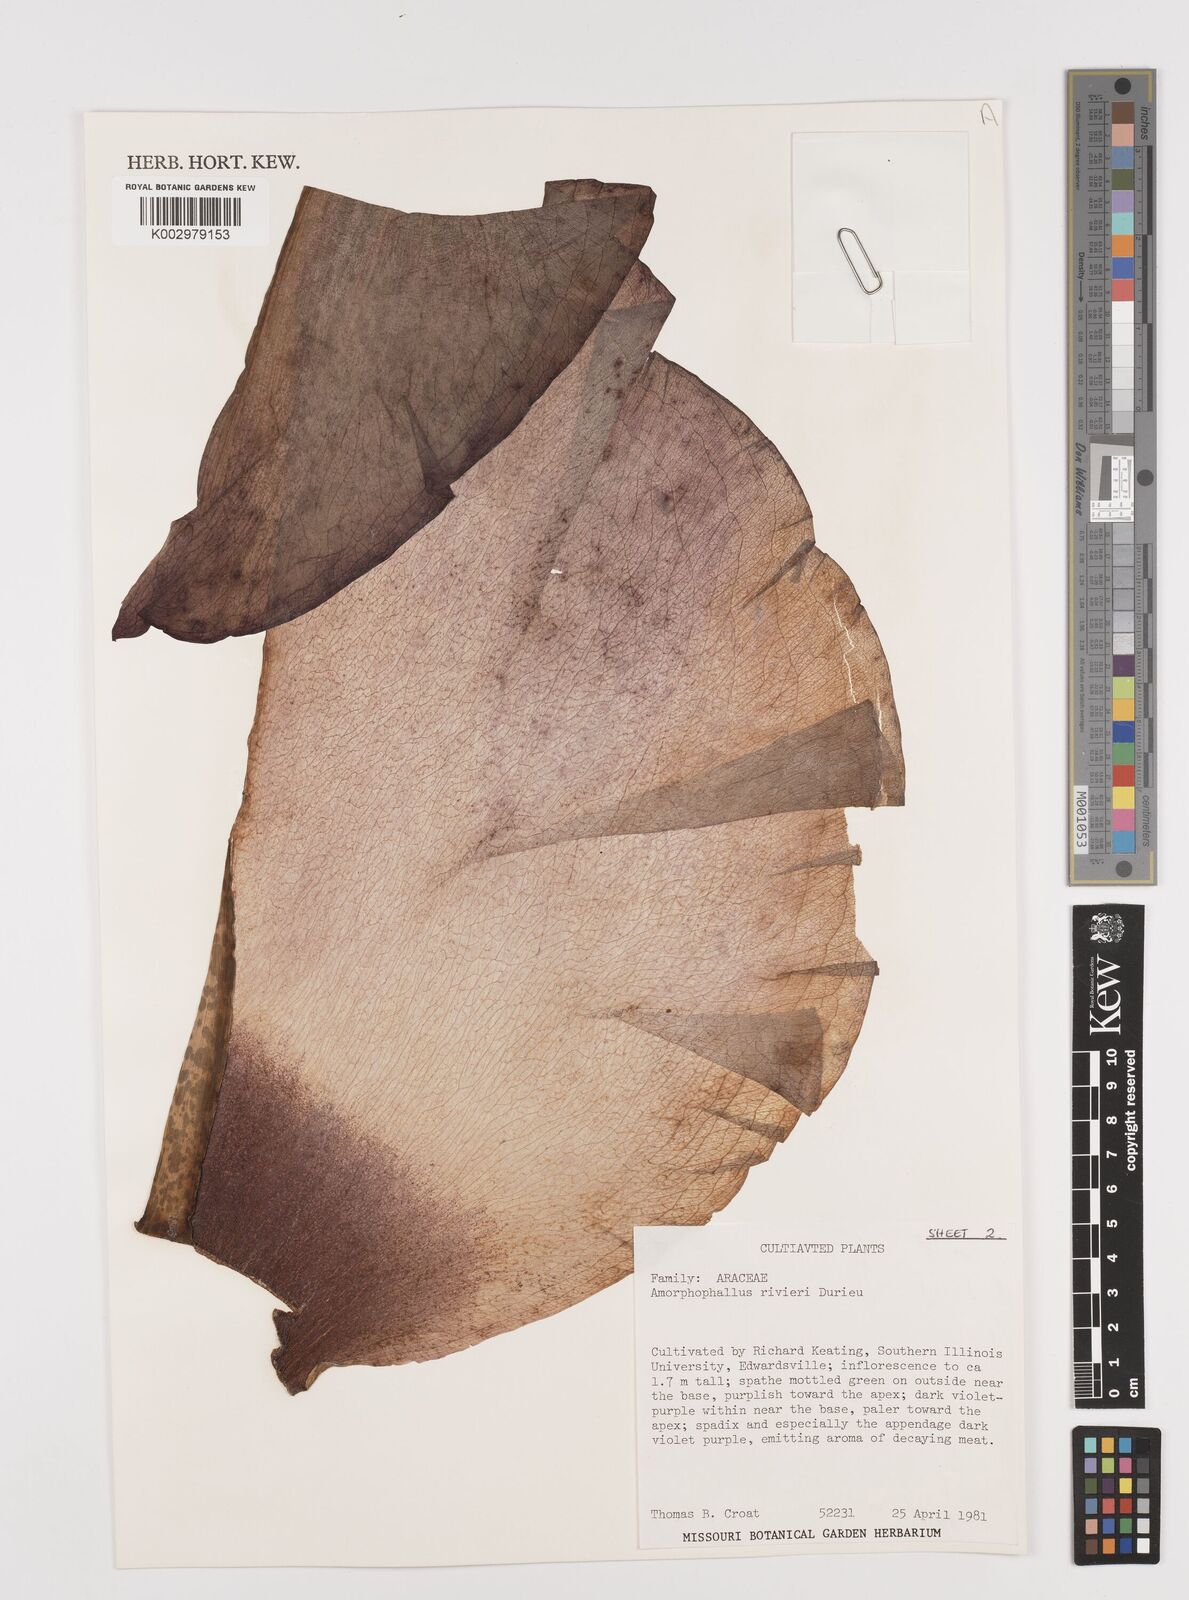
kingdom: Plantae
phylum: Tracheophyta
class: Liliopsida
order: Alismatales
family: Araceae
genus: Amorphophallus
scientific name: Amorphophallus konjac
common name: Umbrella arum
